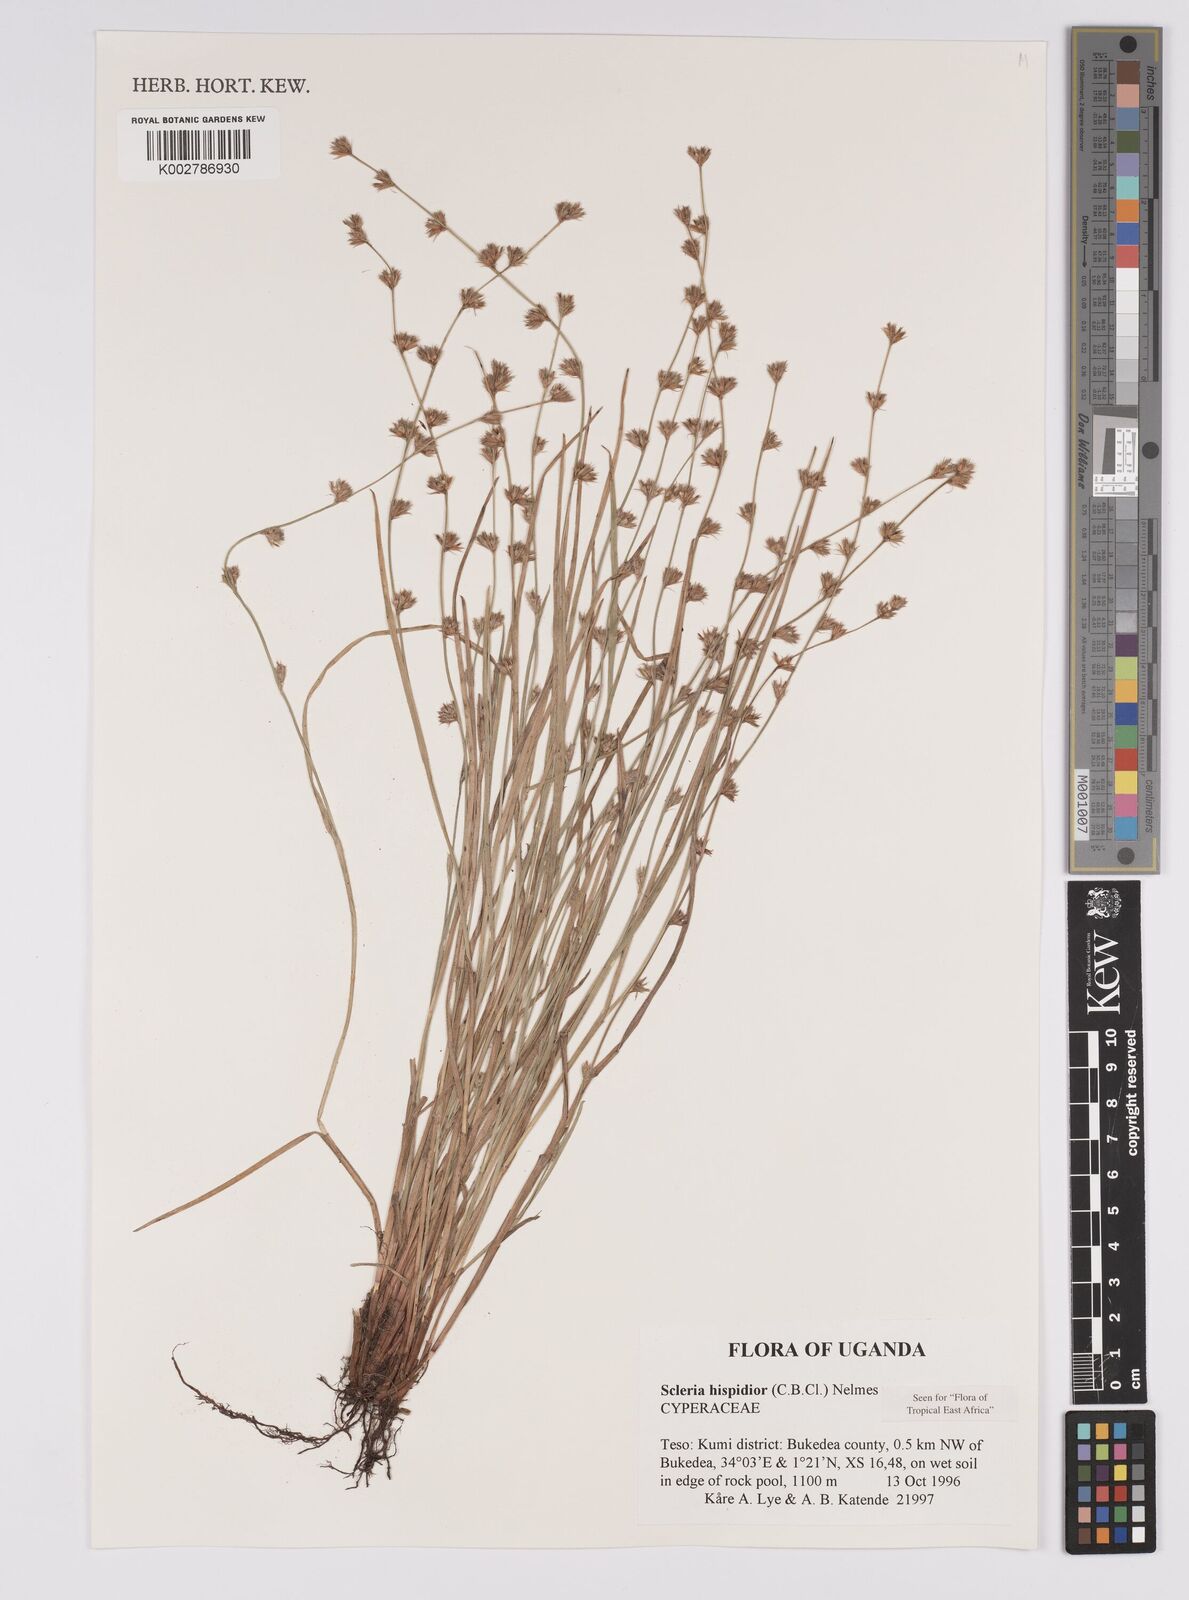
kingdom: Plantae
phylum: Tracheophyta
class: Liliopsida
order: Poales
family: Cyperaceae
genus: Scleria
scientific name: Scleria hispidula
